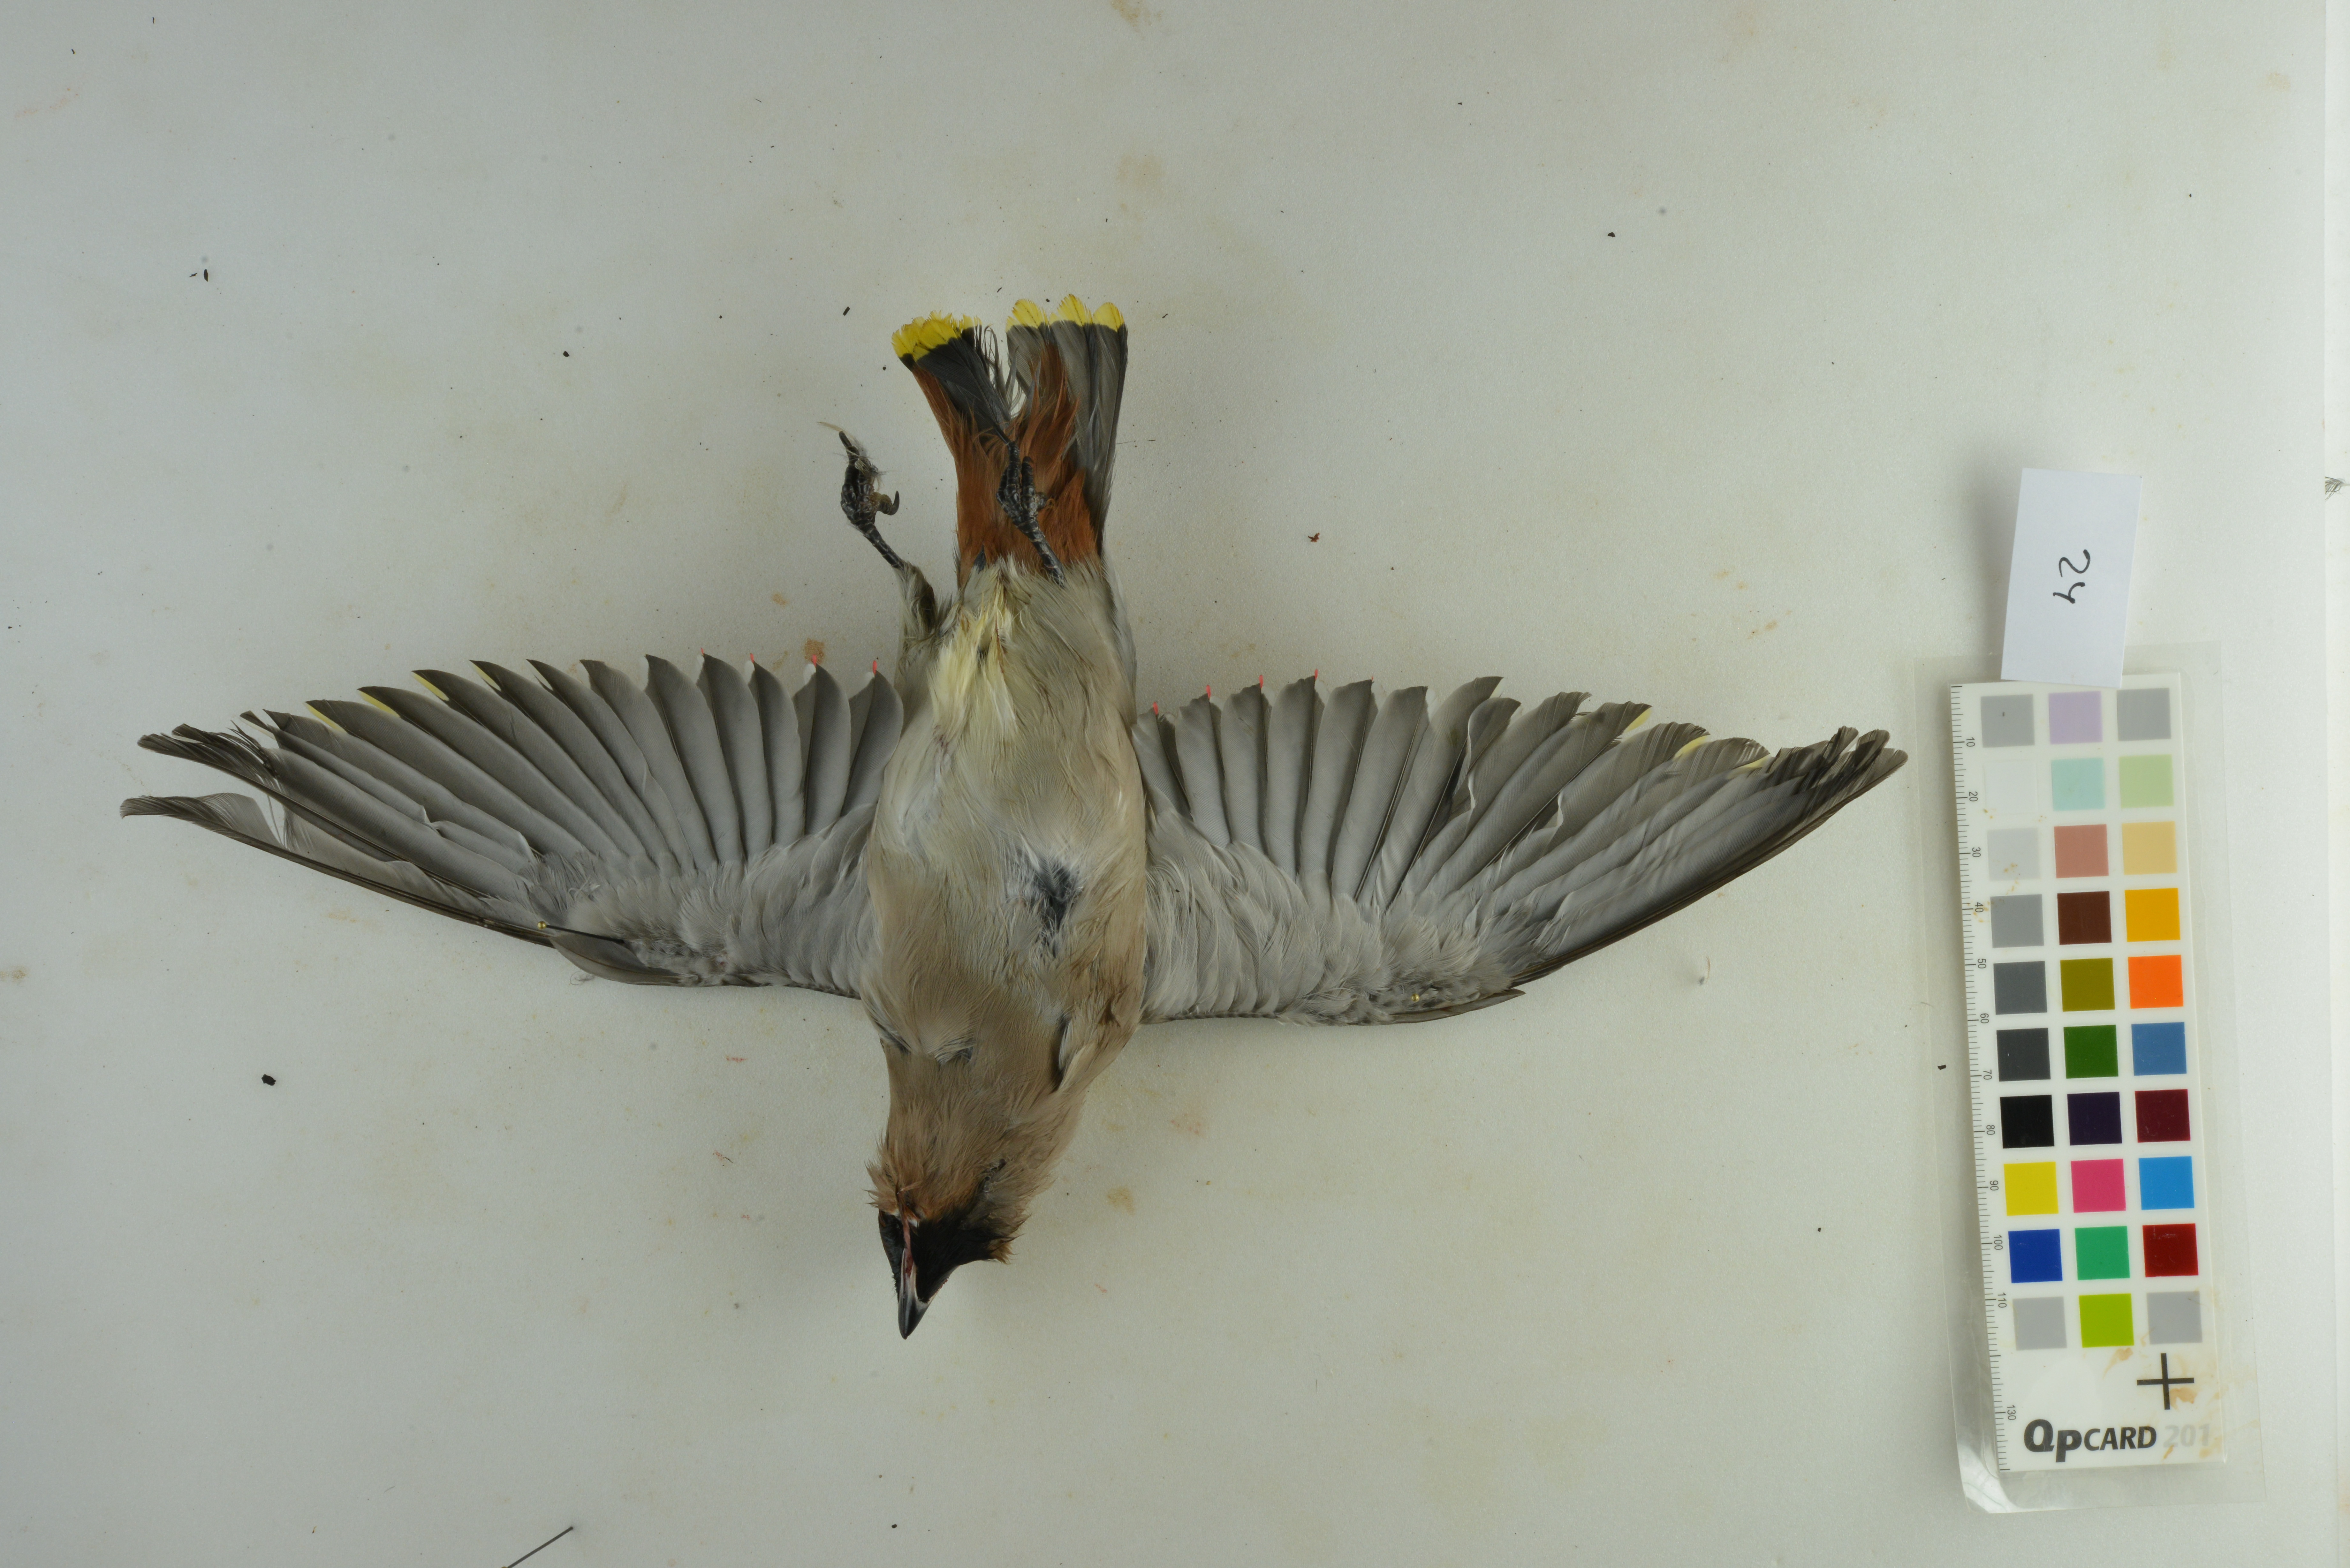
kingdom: Animalia
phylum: Chordata
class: Aves
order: Passeriformes
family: Bombycillidae
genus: Bombycilla
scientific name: Bombycilla garrulus
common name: Bohemian waxwing
